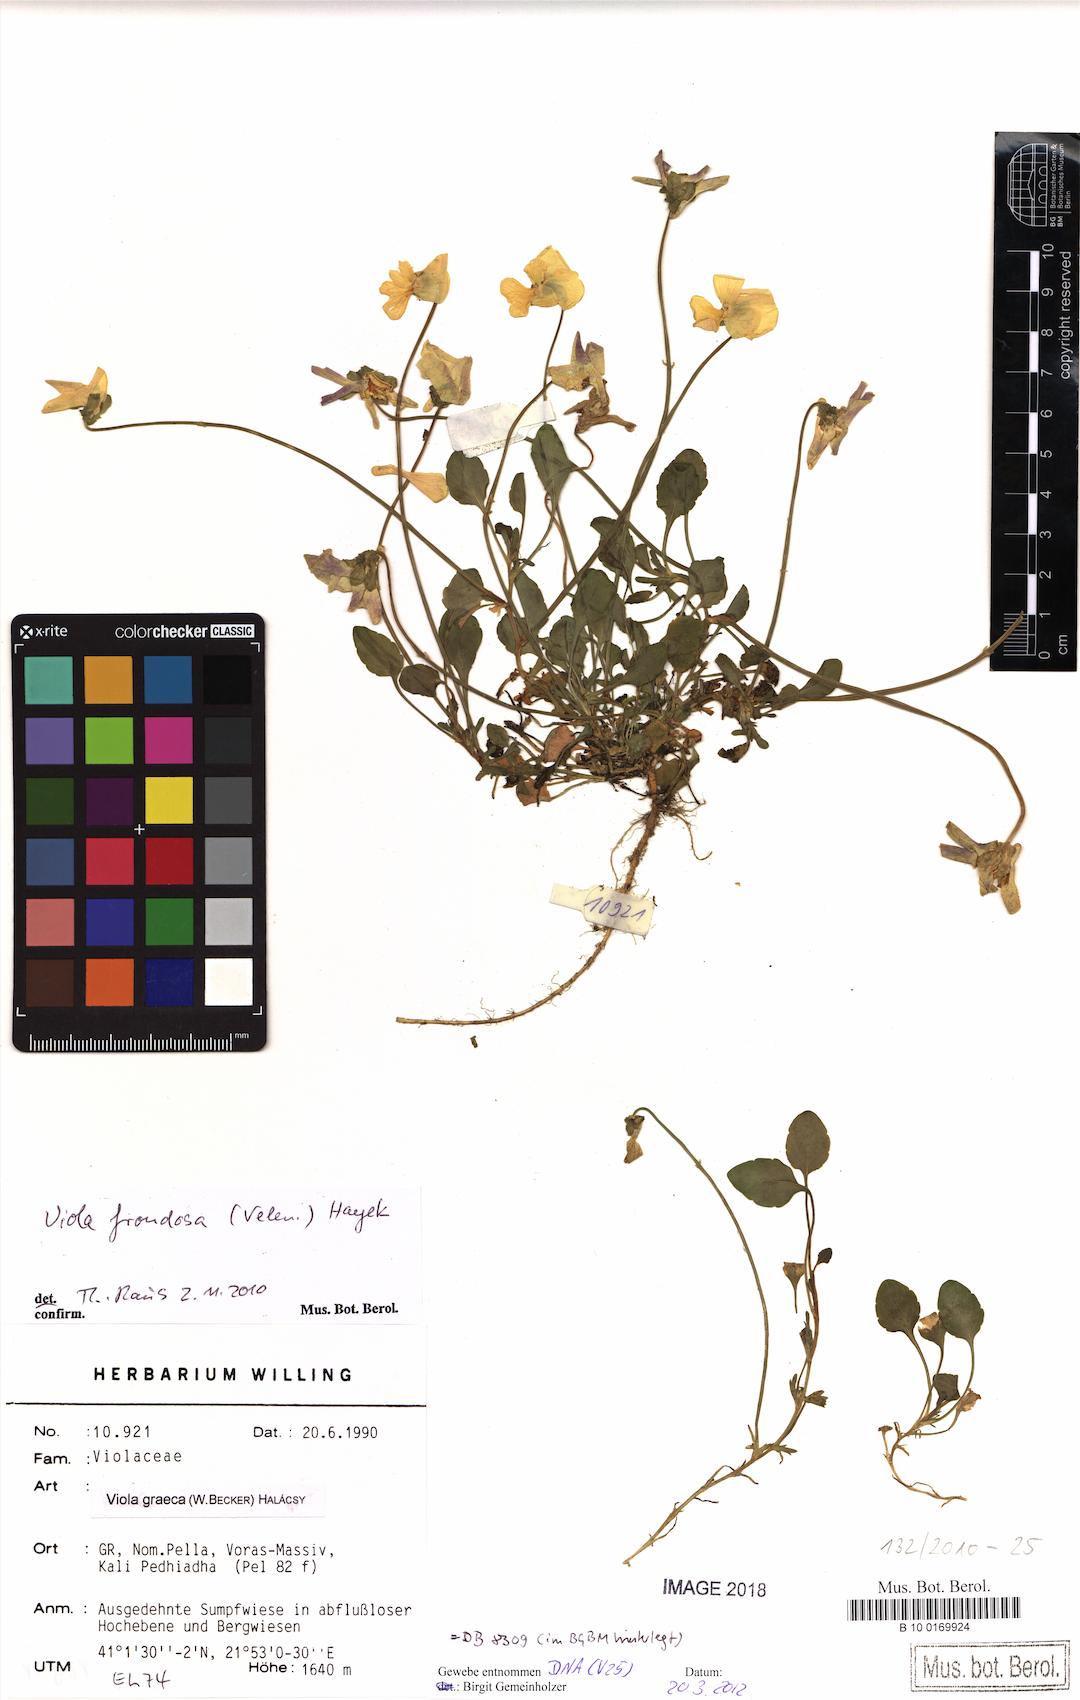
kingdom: Plantae
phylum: Tracheophyta
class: Magnoliopsida
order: Malpighiales
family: Violaceae
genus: Viola
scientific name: Viola frondosa
